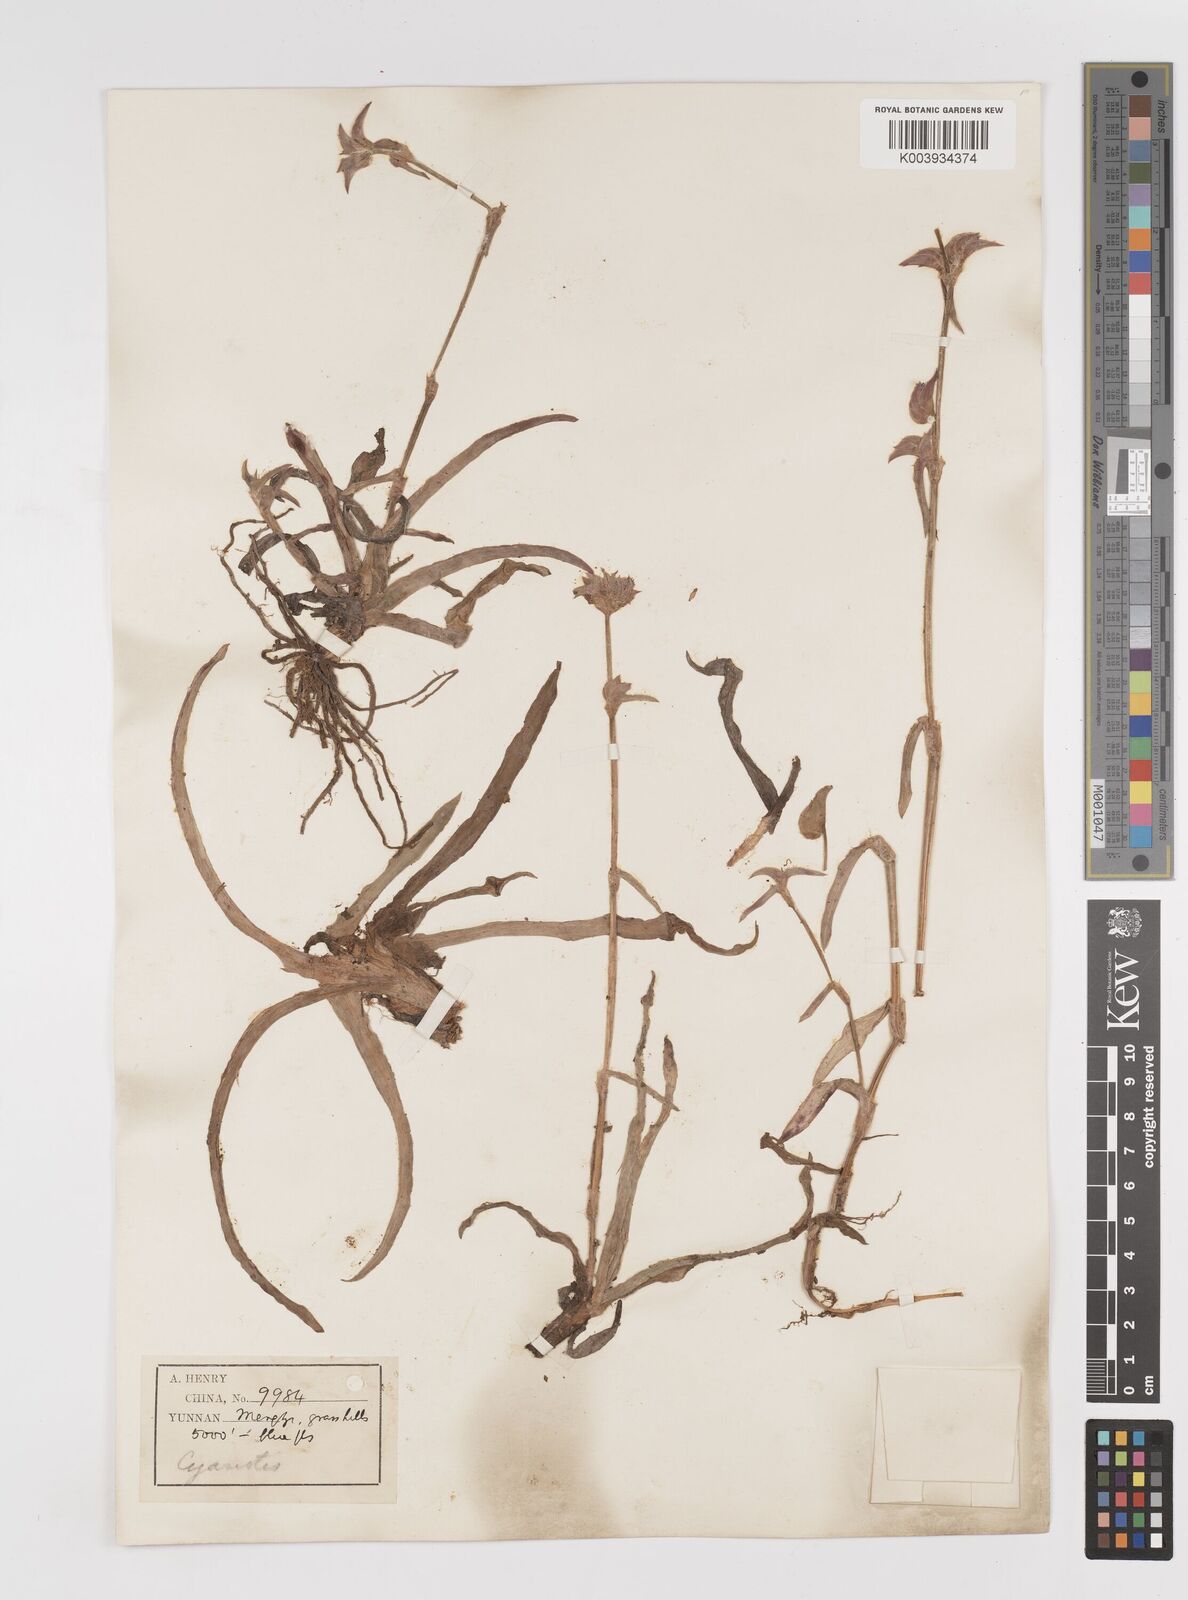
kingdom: Plantae
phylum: Tracheophyta
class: Liliopsida
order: Commelinales
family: Commelinaceae
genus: Cyanotis
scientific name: Cyanotis
